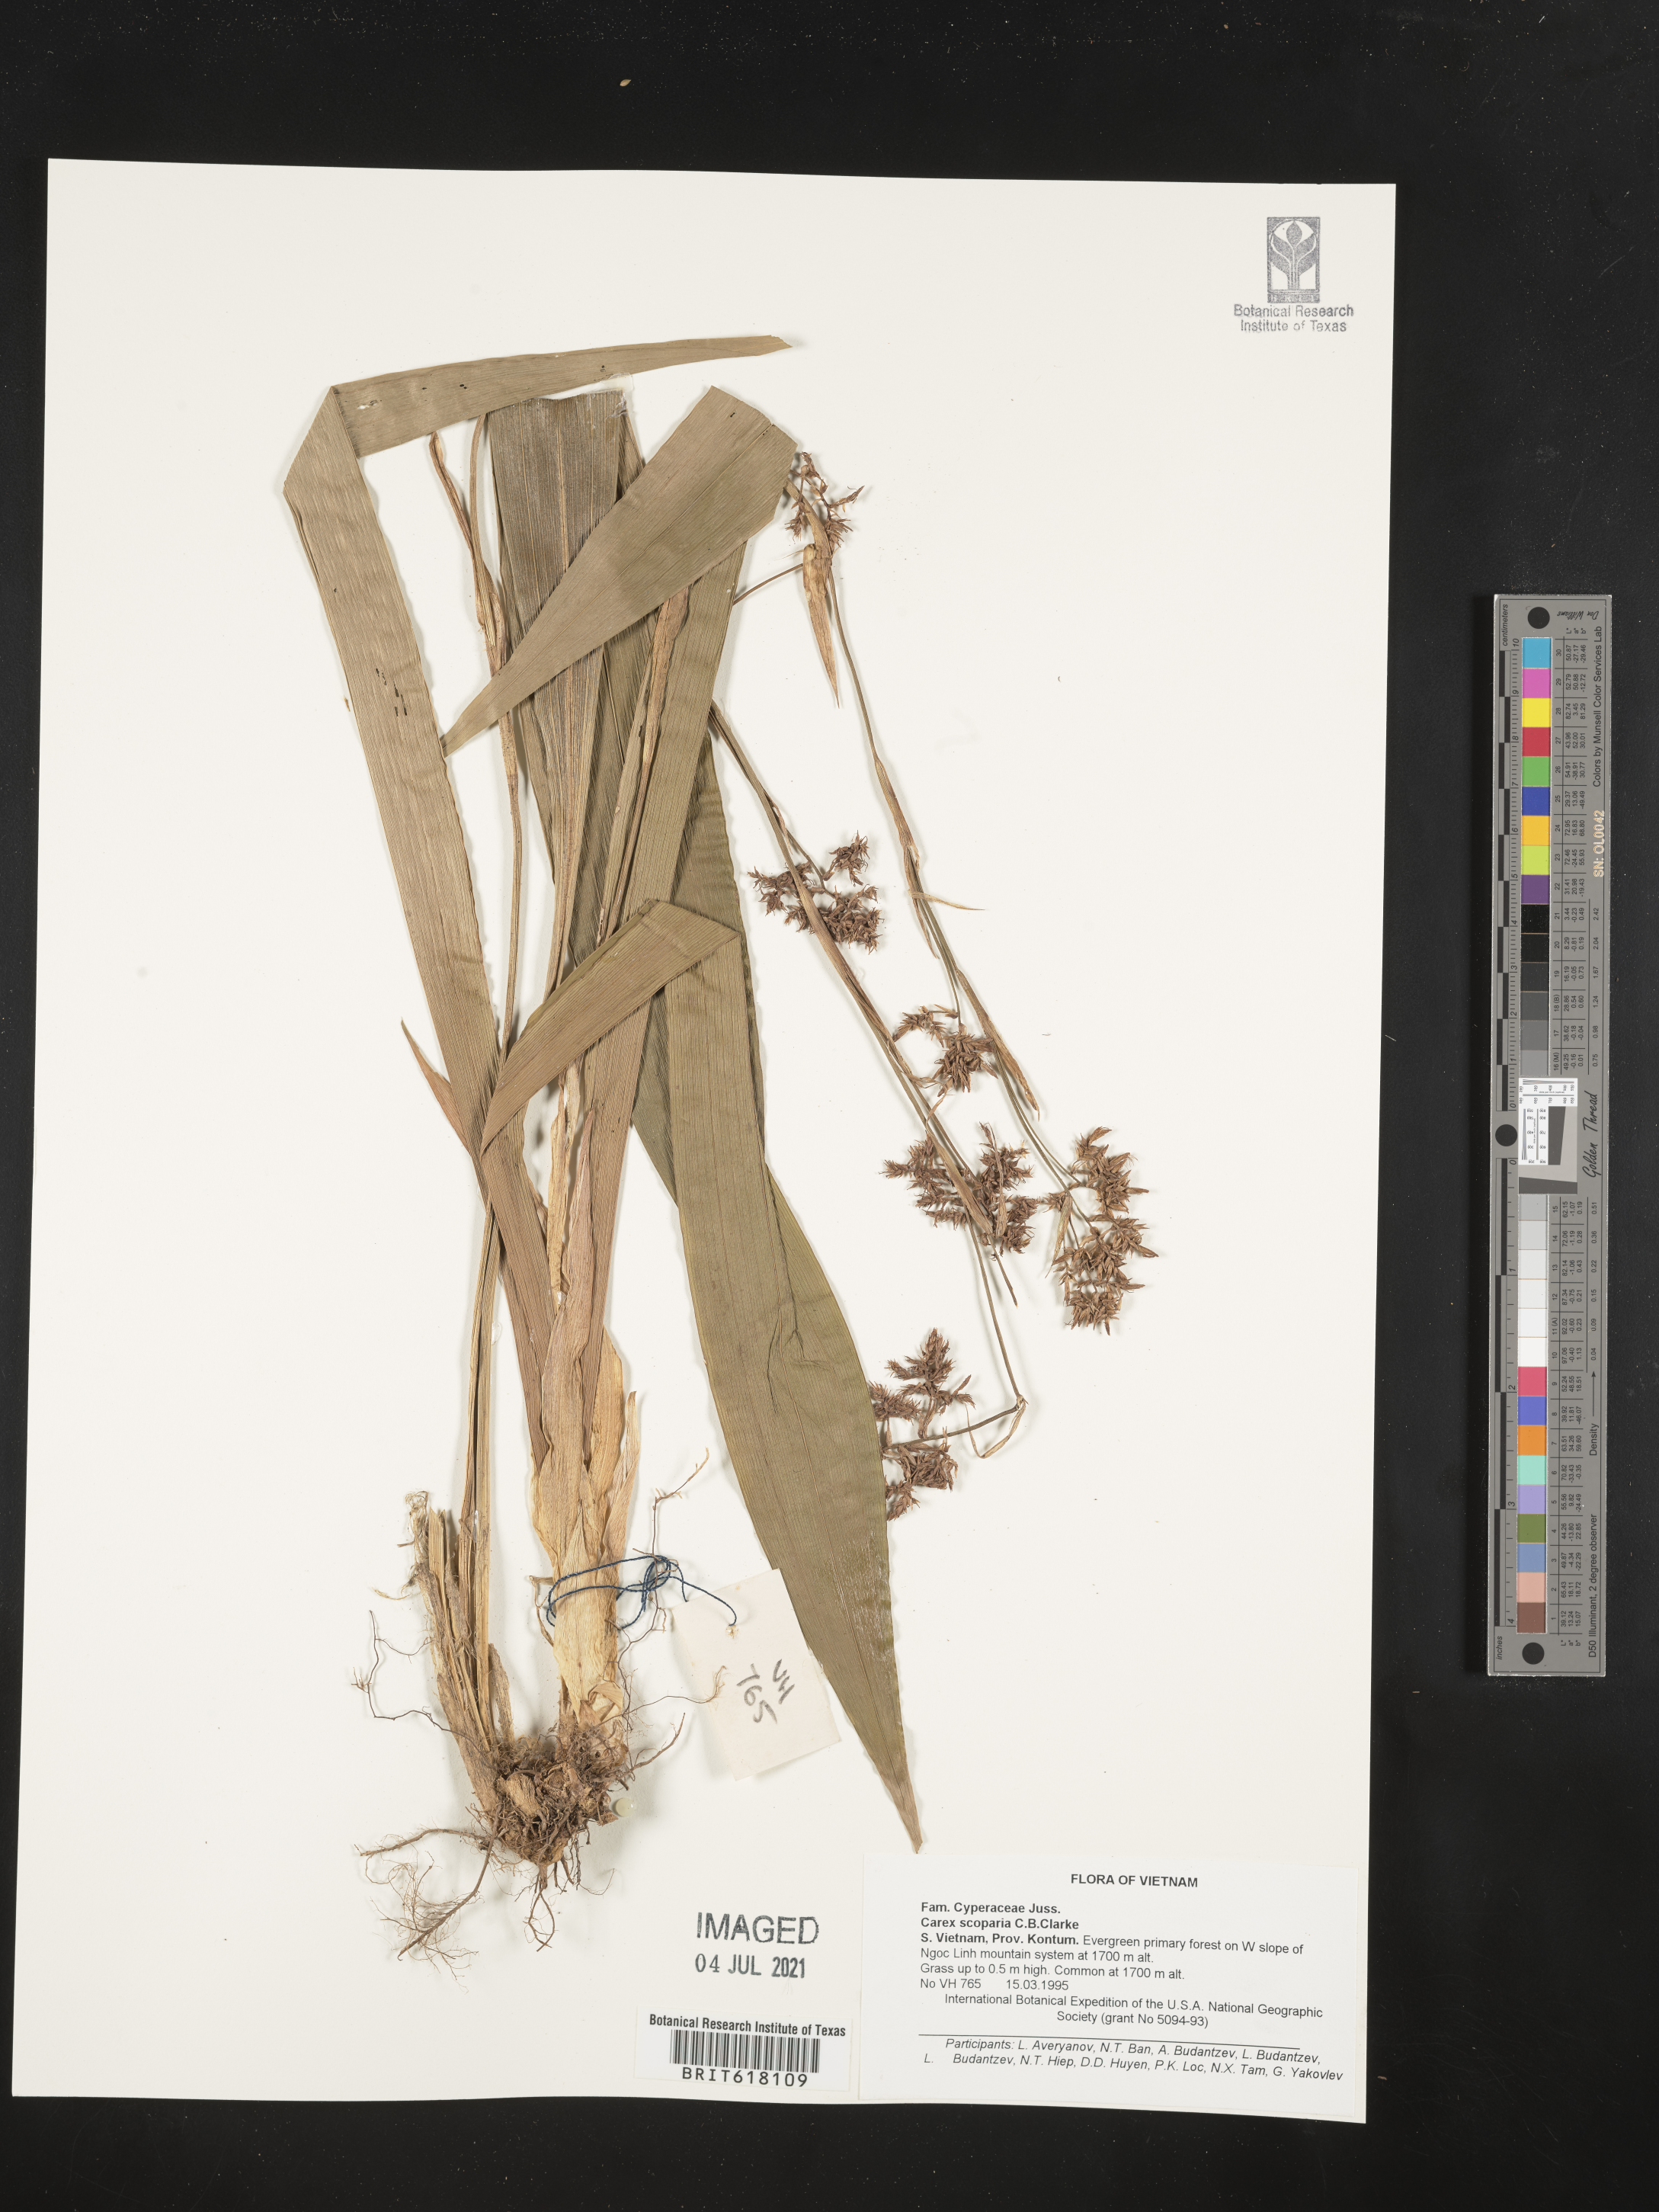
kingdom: Plantae
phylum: Tracheophyta
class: Liliopsida
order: Poales
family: Cyperaceae
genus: Carex
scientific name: Carex
